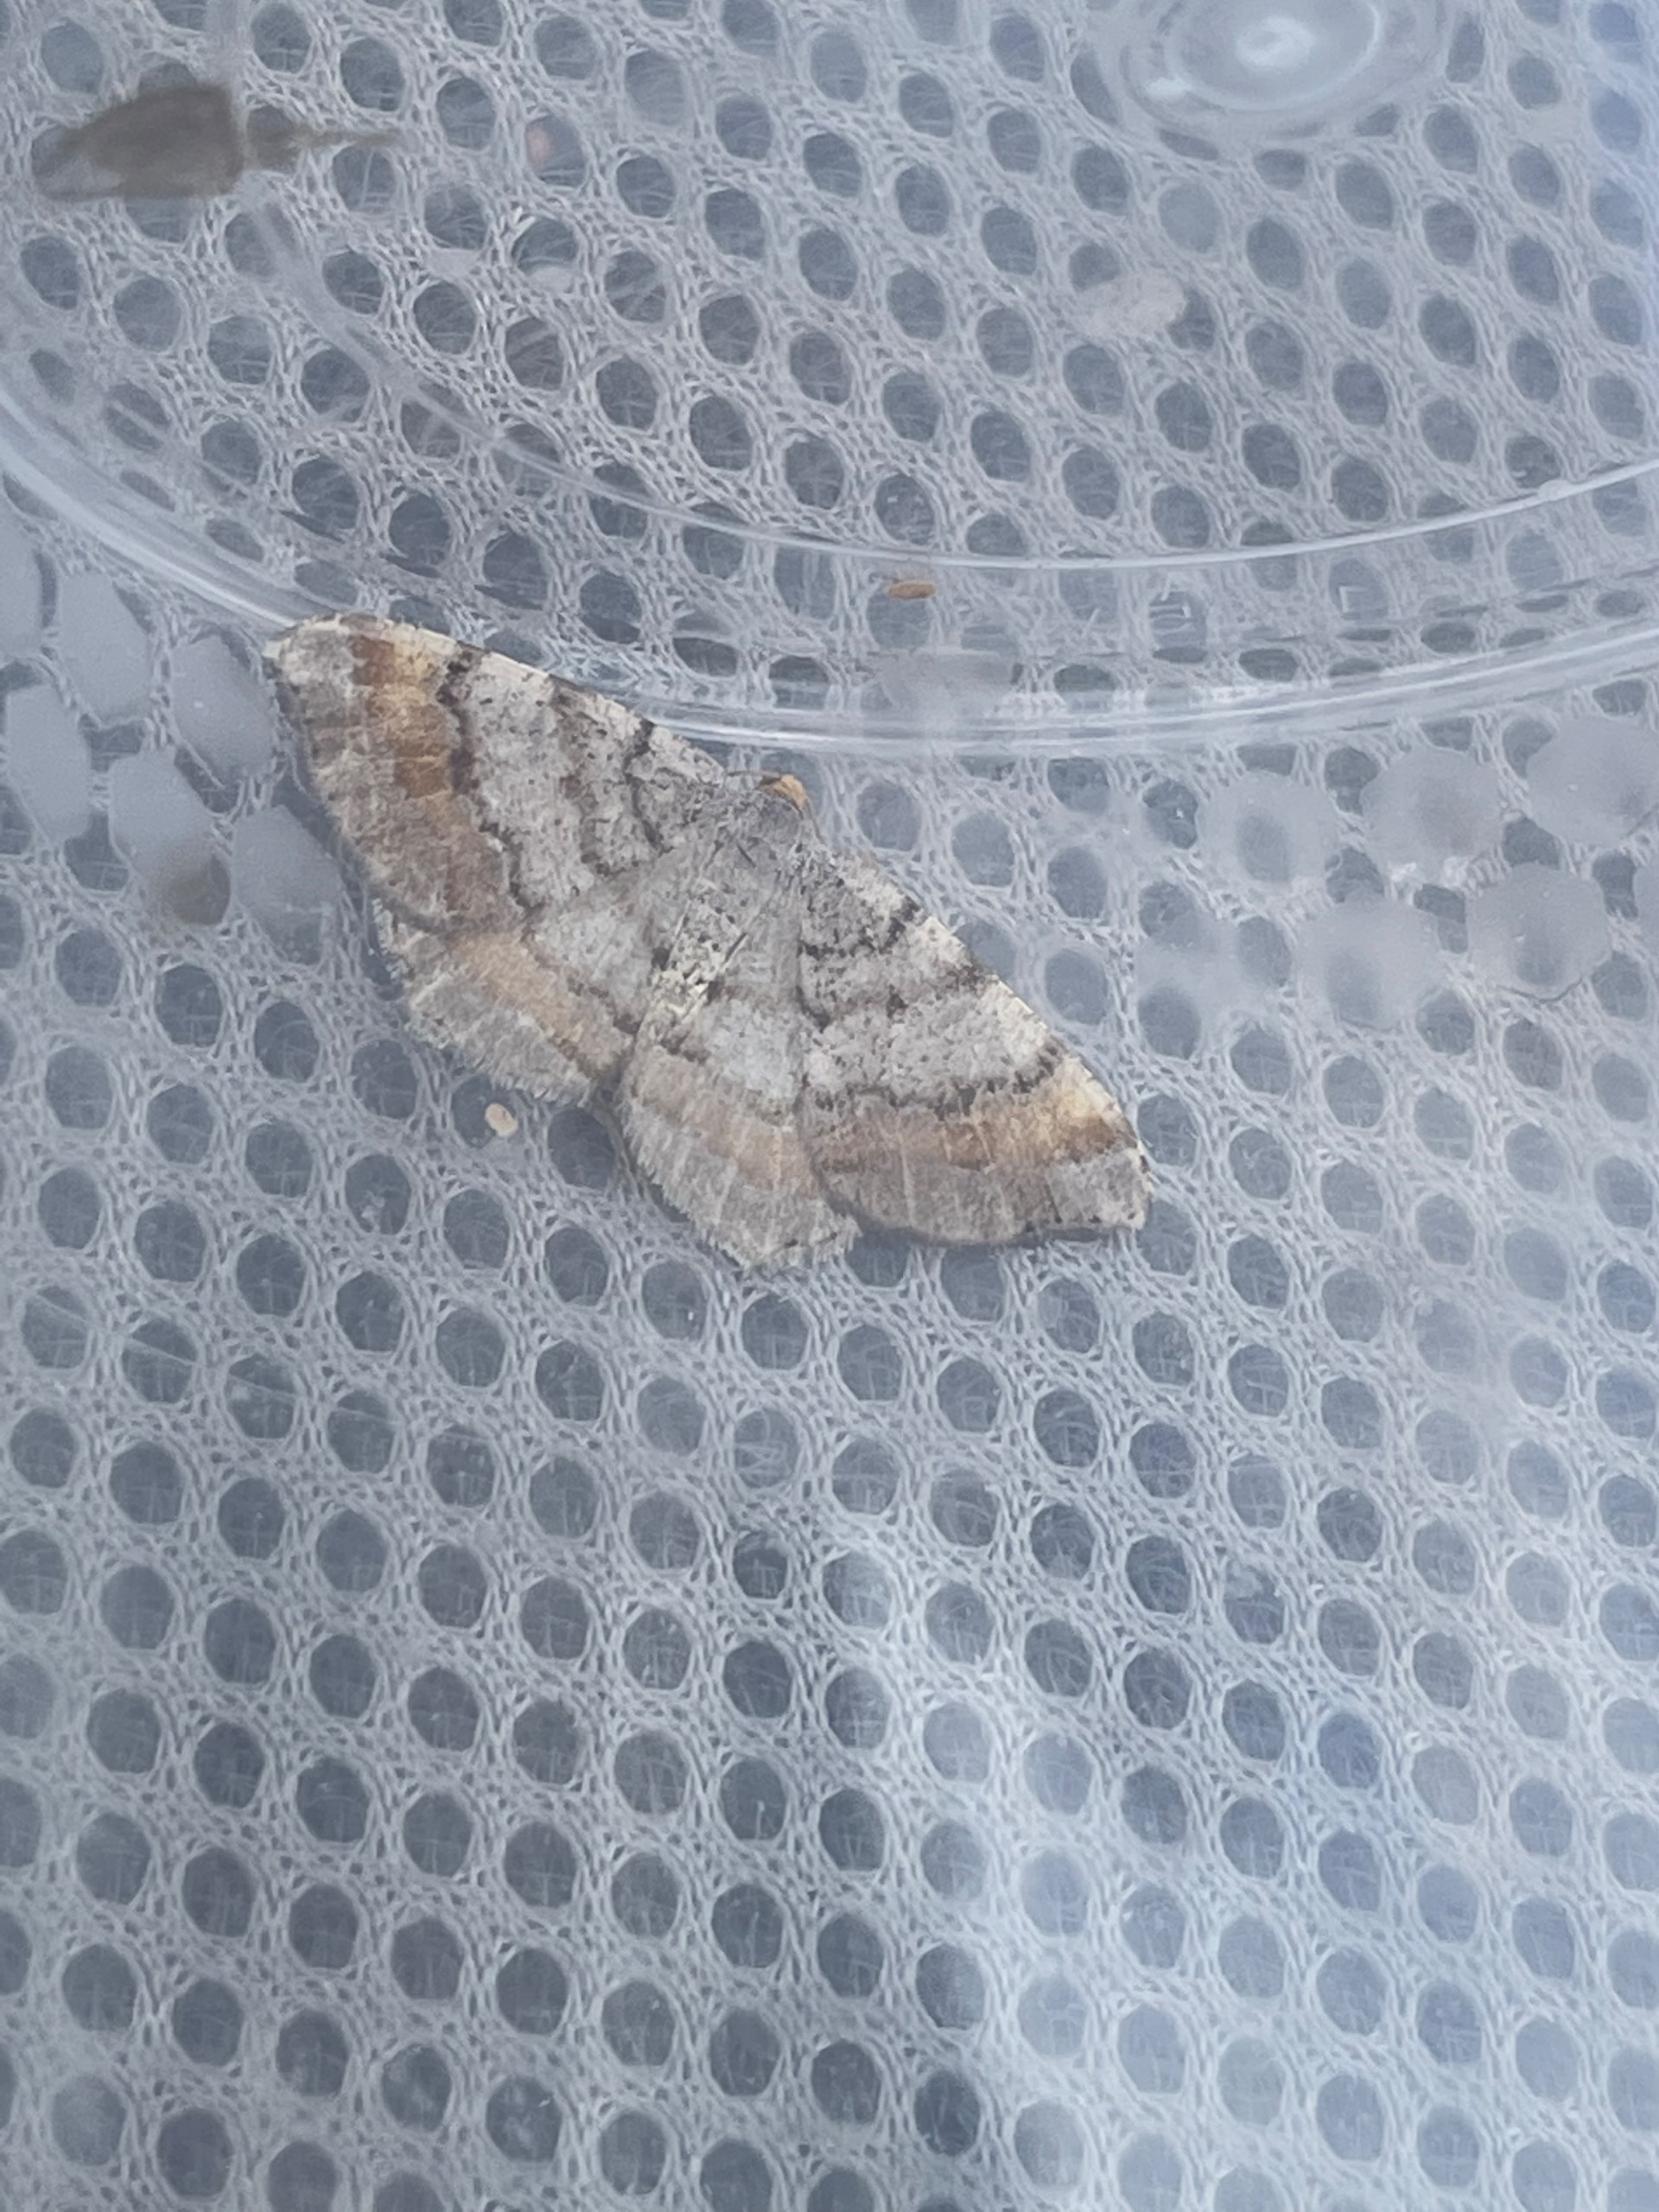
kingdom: Animalia
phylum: Arthropoda
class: Insecta
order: Lepidoptera
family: Geometridae
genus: Macaria
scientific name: Macaria liturata
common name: Fyrre-skovmåler
